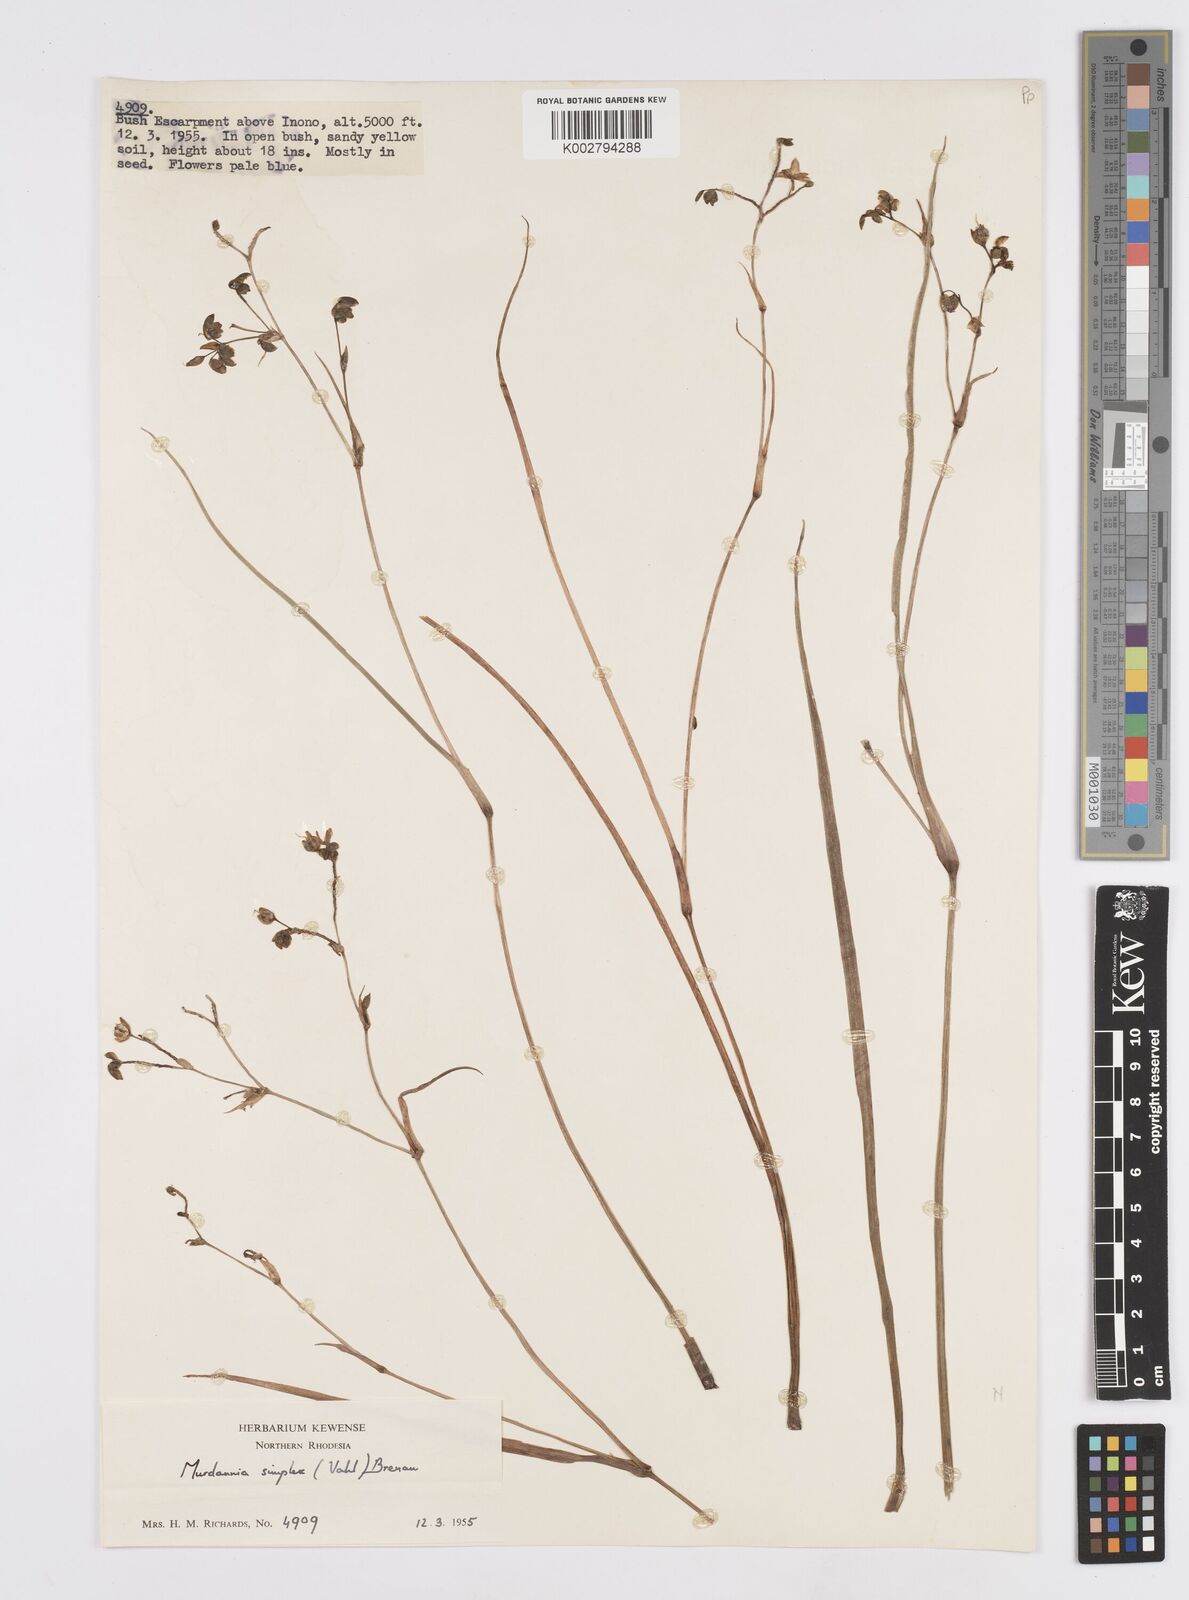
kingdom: Plantae
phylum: Tracheophyta
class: Liliopsida
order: Commelinales
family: Commelinaceae
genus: Murdannia
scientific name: Murdannia simplex
